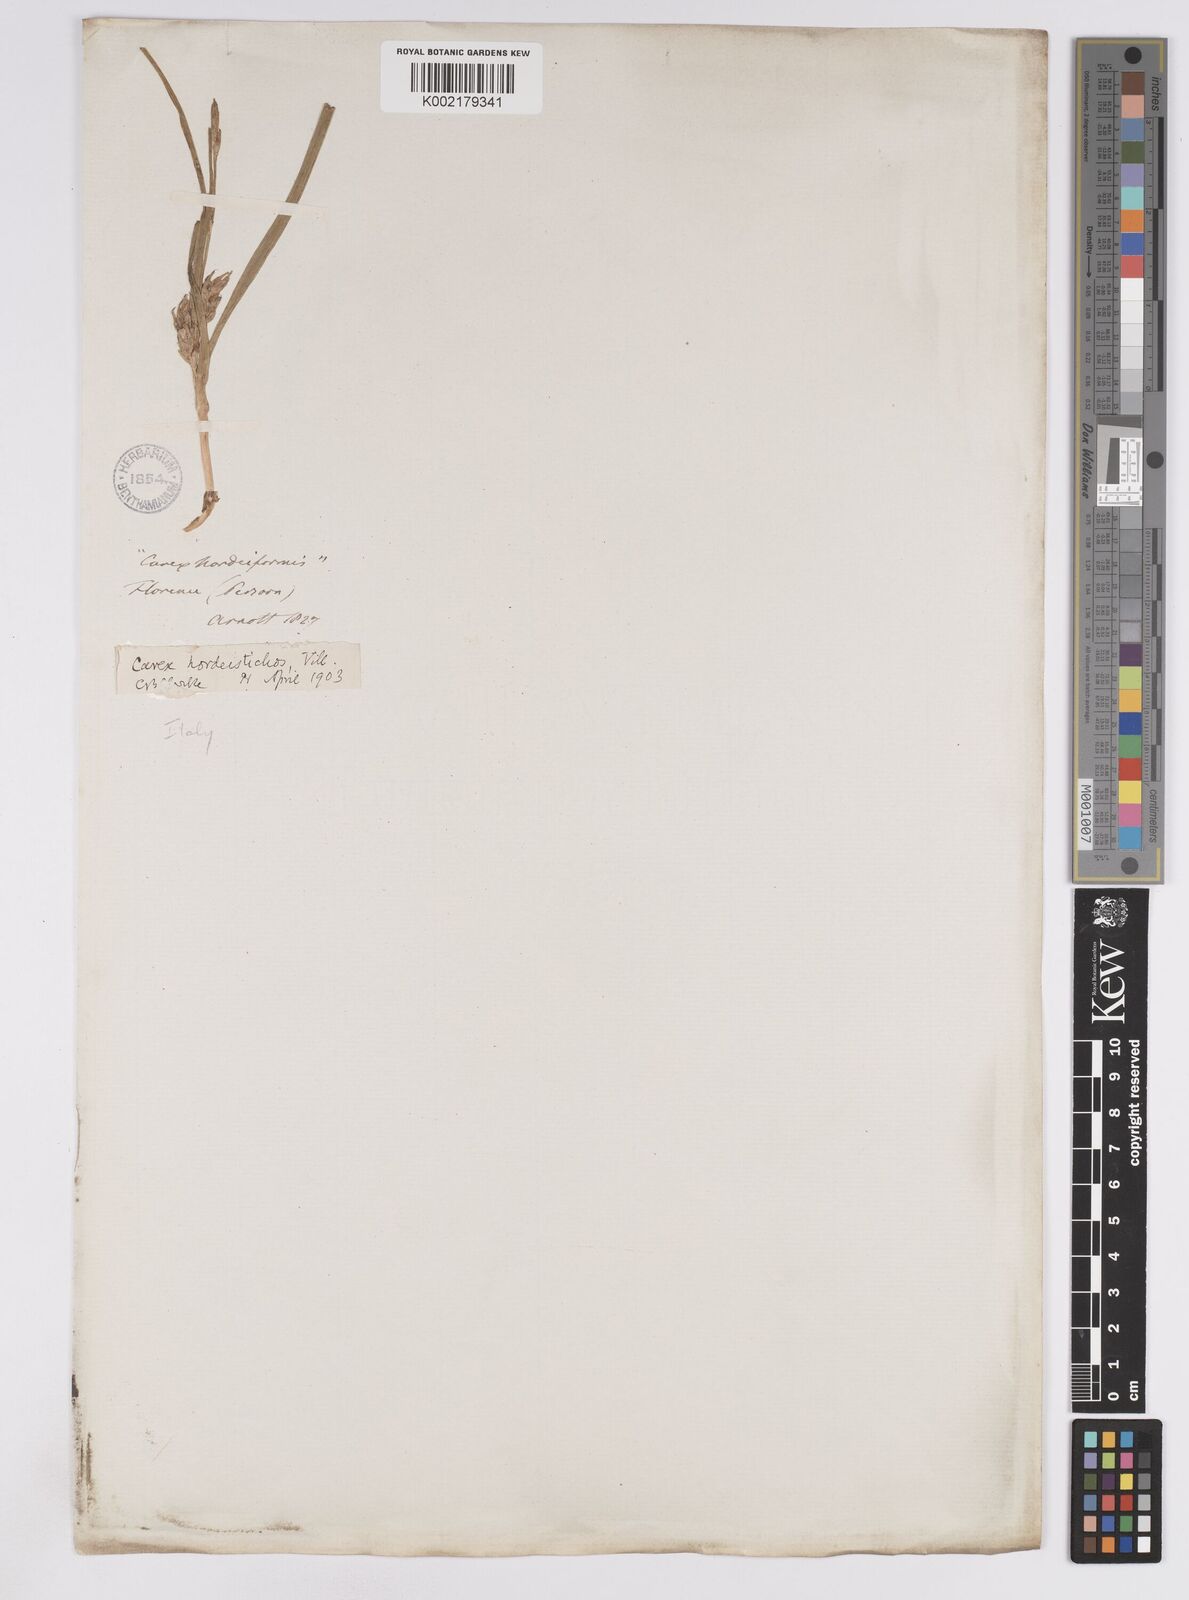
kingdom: Plantae
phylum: Tracheophyta
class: Liliopsida
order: Poales
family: Cyperaceae
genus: Carex
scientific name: Carex hordeistichos
